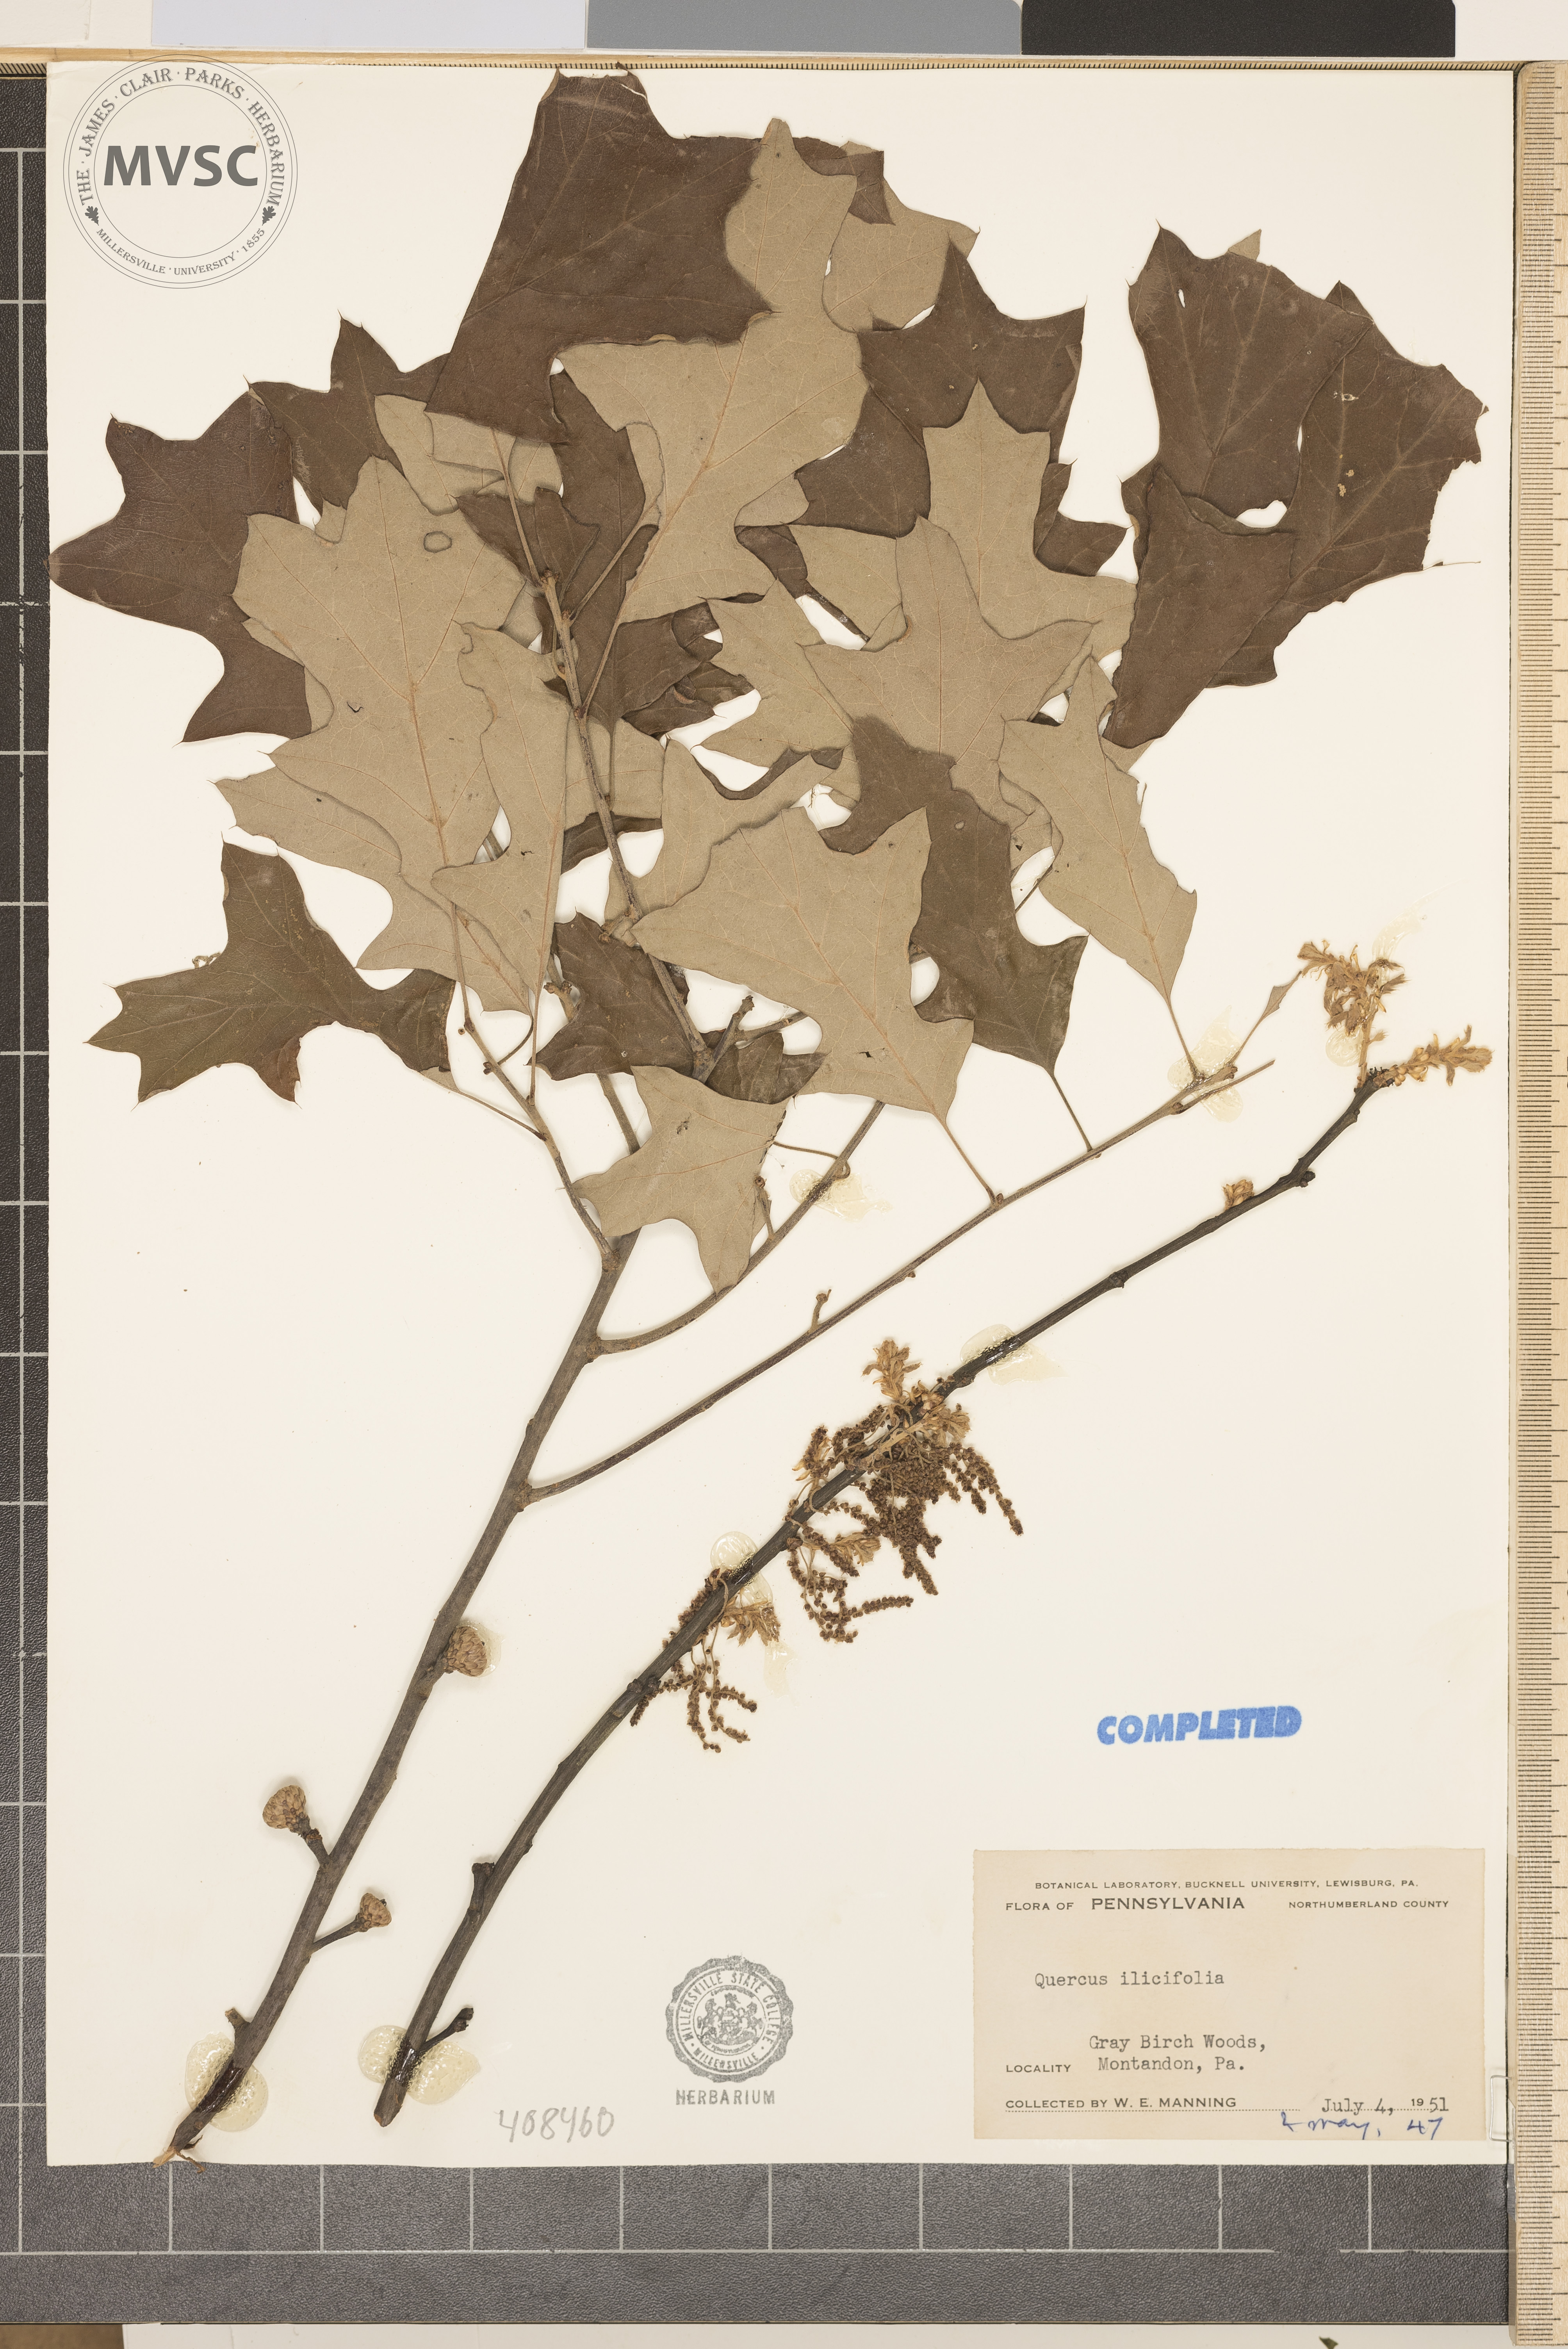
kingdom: Plantae
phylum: Tracheophyta
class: Magnoliopsida
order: Fagales
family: Fagaceae
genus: Quercus
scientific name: Quercus ilicifolia
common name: Bear oak
